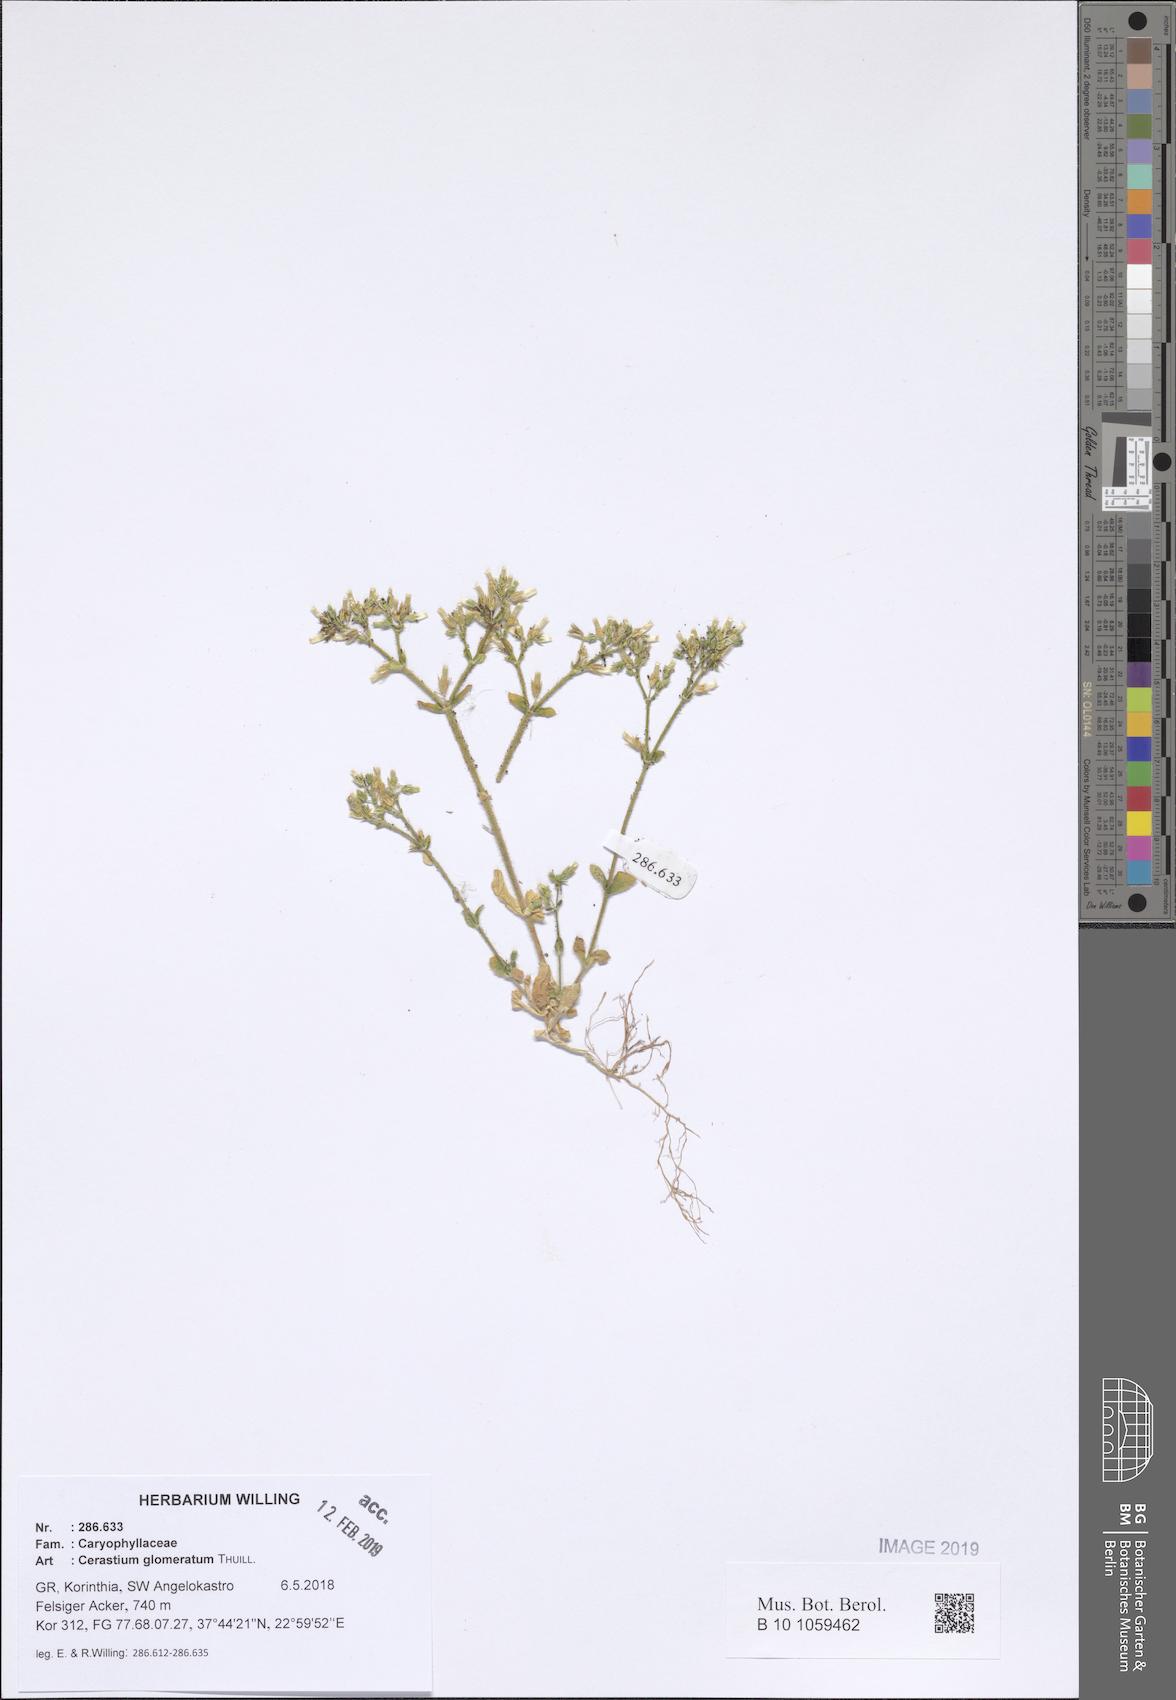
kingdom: Plantae
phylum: Tracheophyta
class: Magnoliopsida
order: Caryophyllales
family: Caryophyllaceae
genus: Cerastium
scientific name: Cerastium glomeratum
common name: Sticky chickweed
